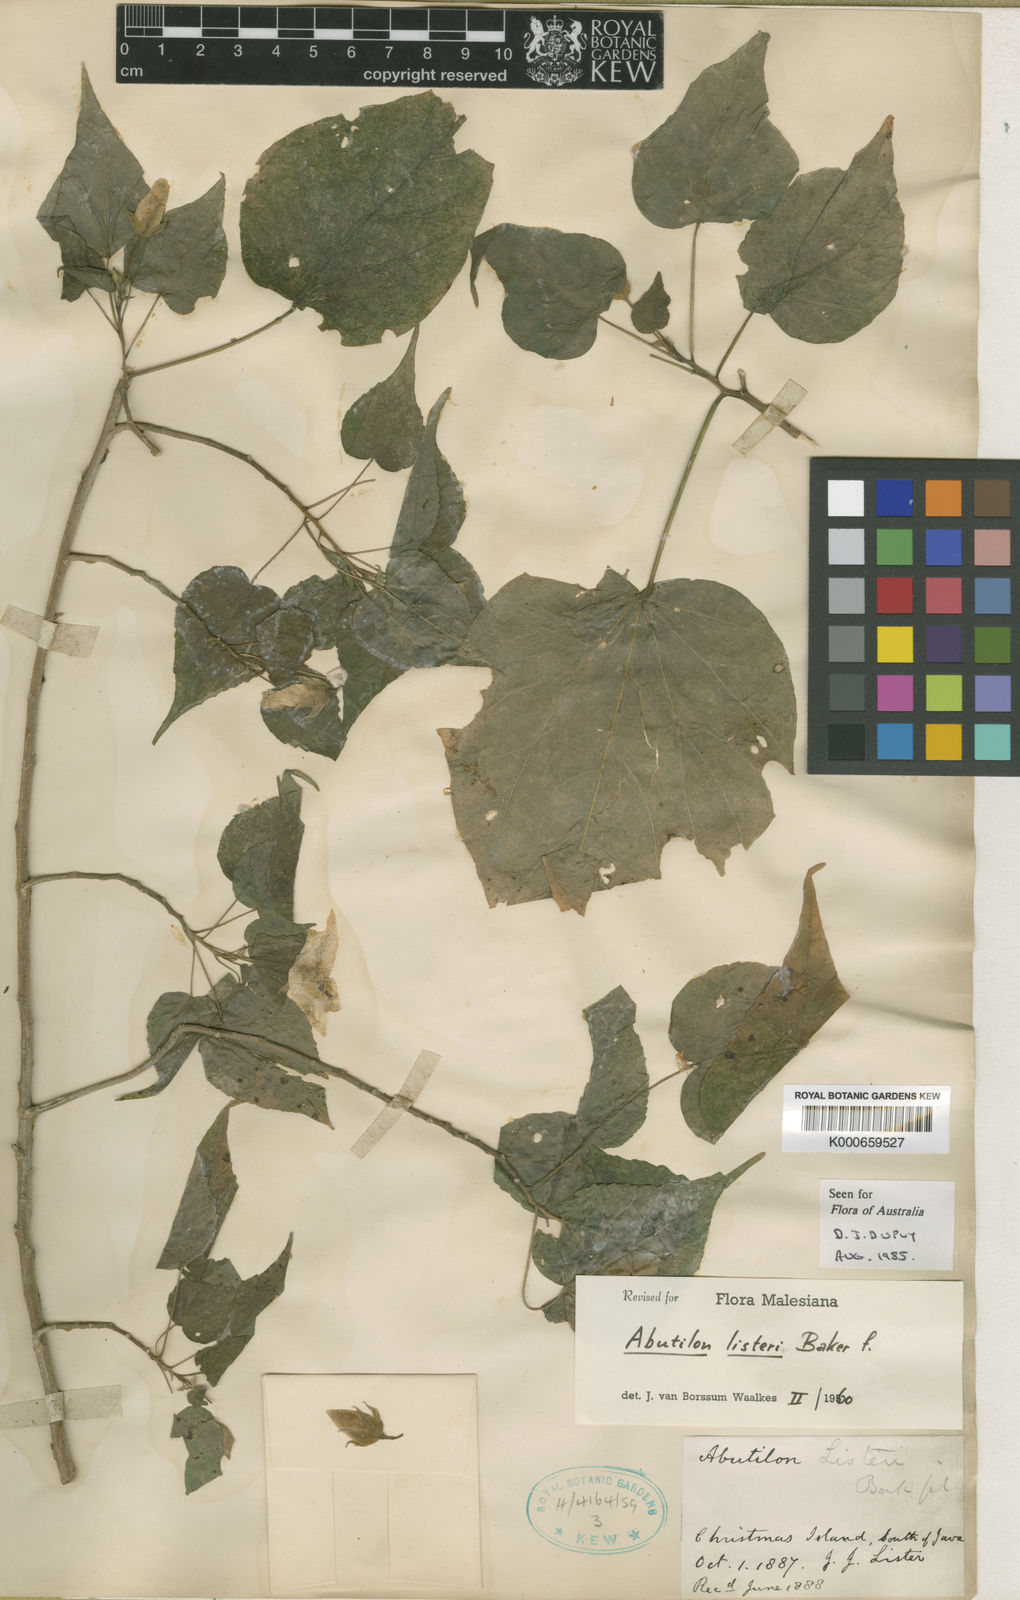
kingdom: Plantae
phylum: Tracheophyta
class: Magnoliopsida
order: Malvales
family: Malvaceae
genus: Abutilon
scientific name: Abutilon listeri
